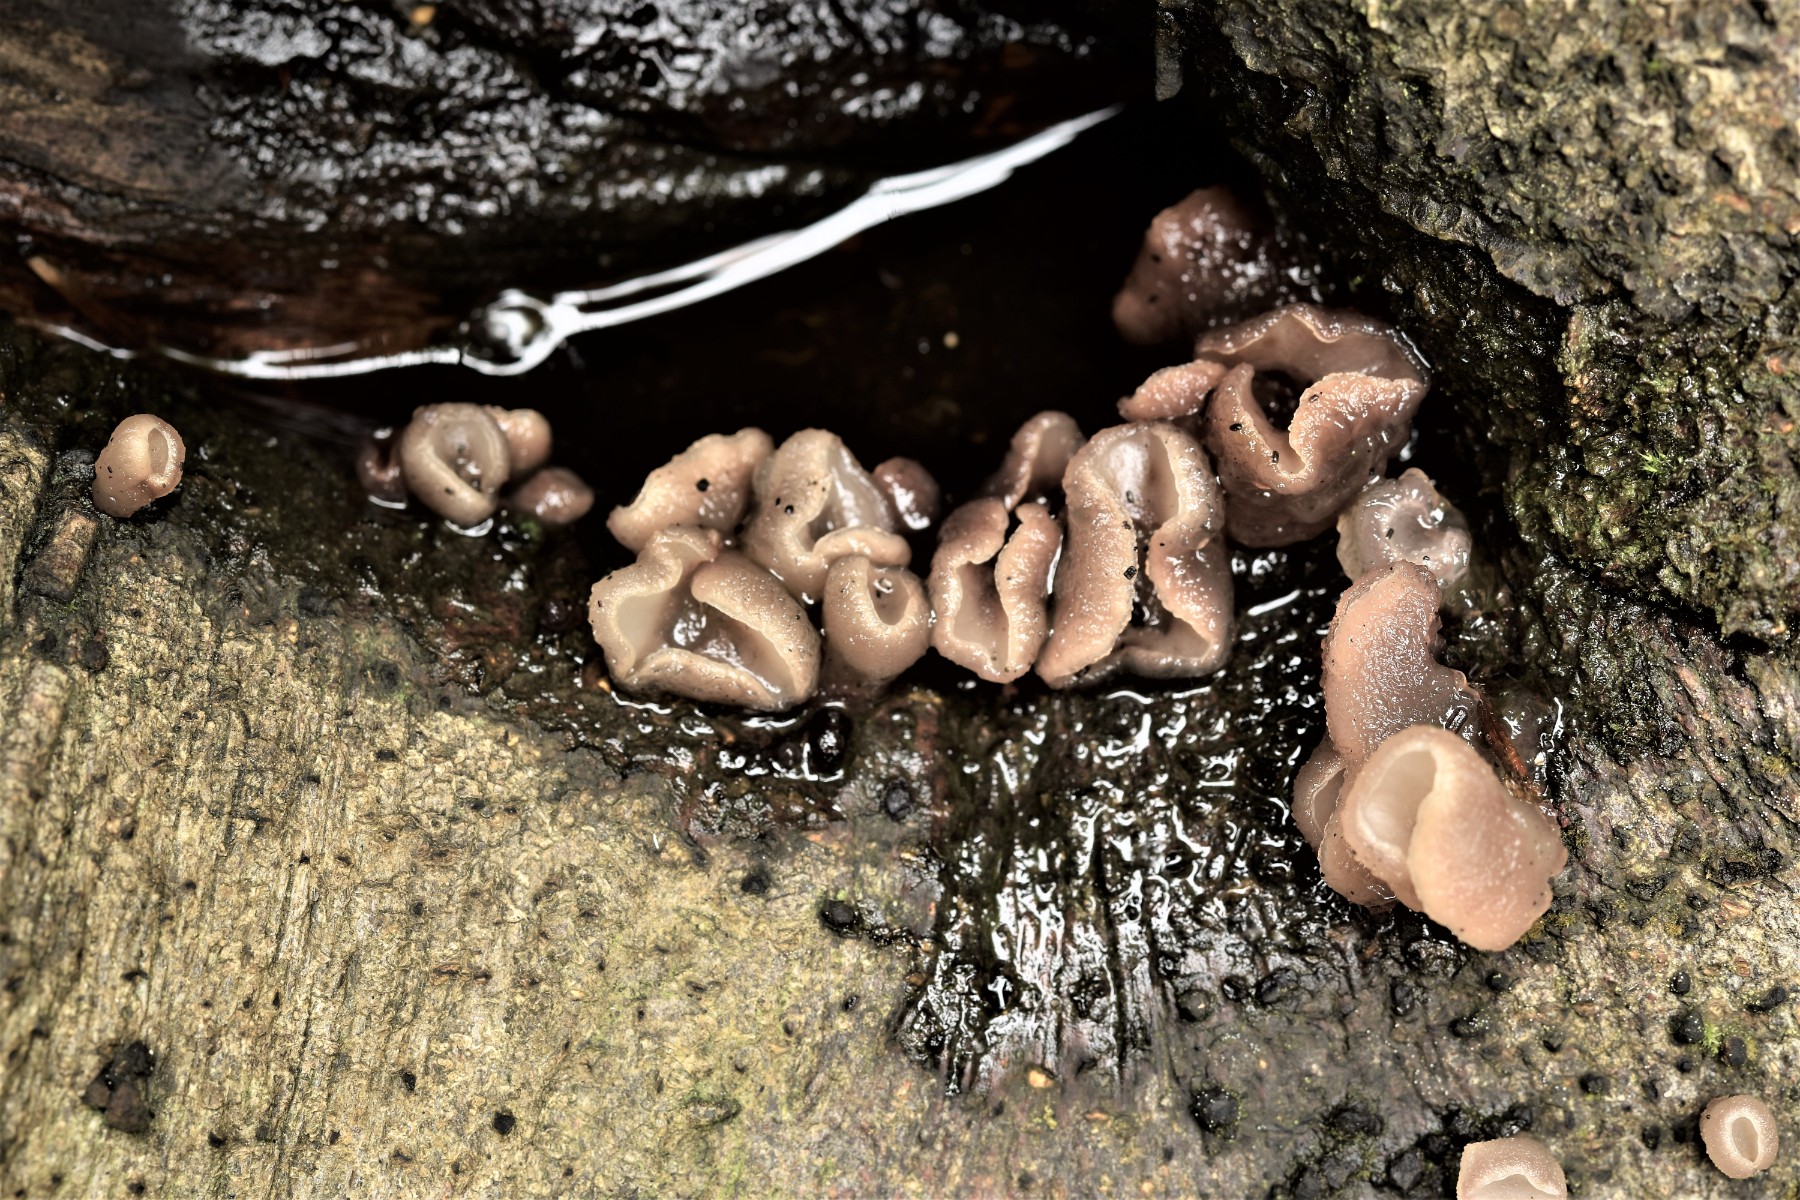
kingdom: Fungi
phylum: Ascomycota
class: Leotiomycetes
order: Helotiales
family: Gelatinodiscaceae
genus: Neobulgaria
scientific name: Neobulgaria pura
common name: bleg bævreskive
